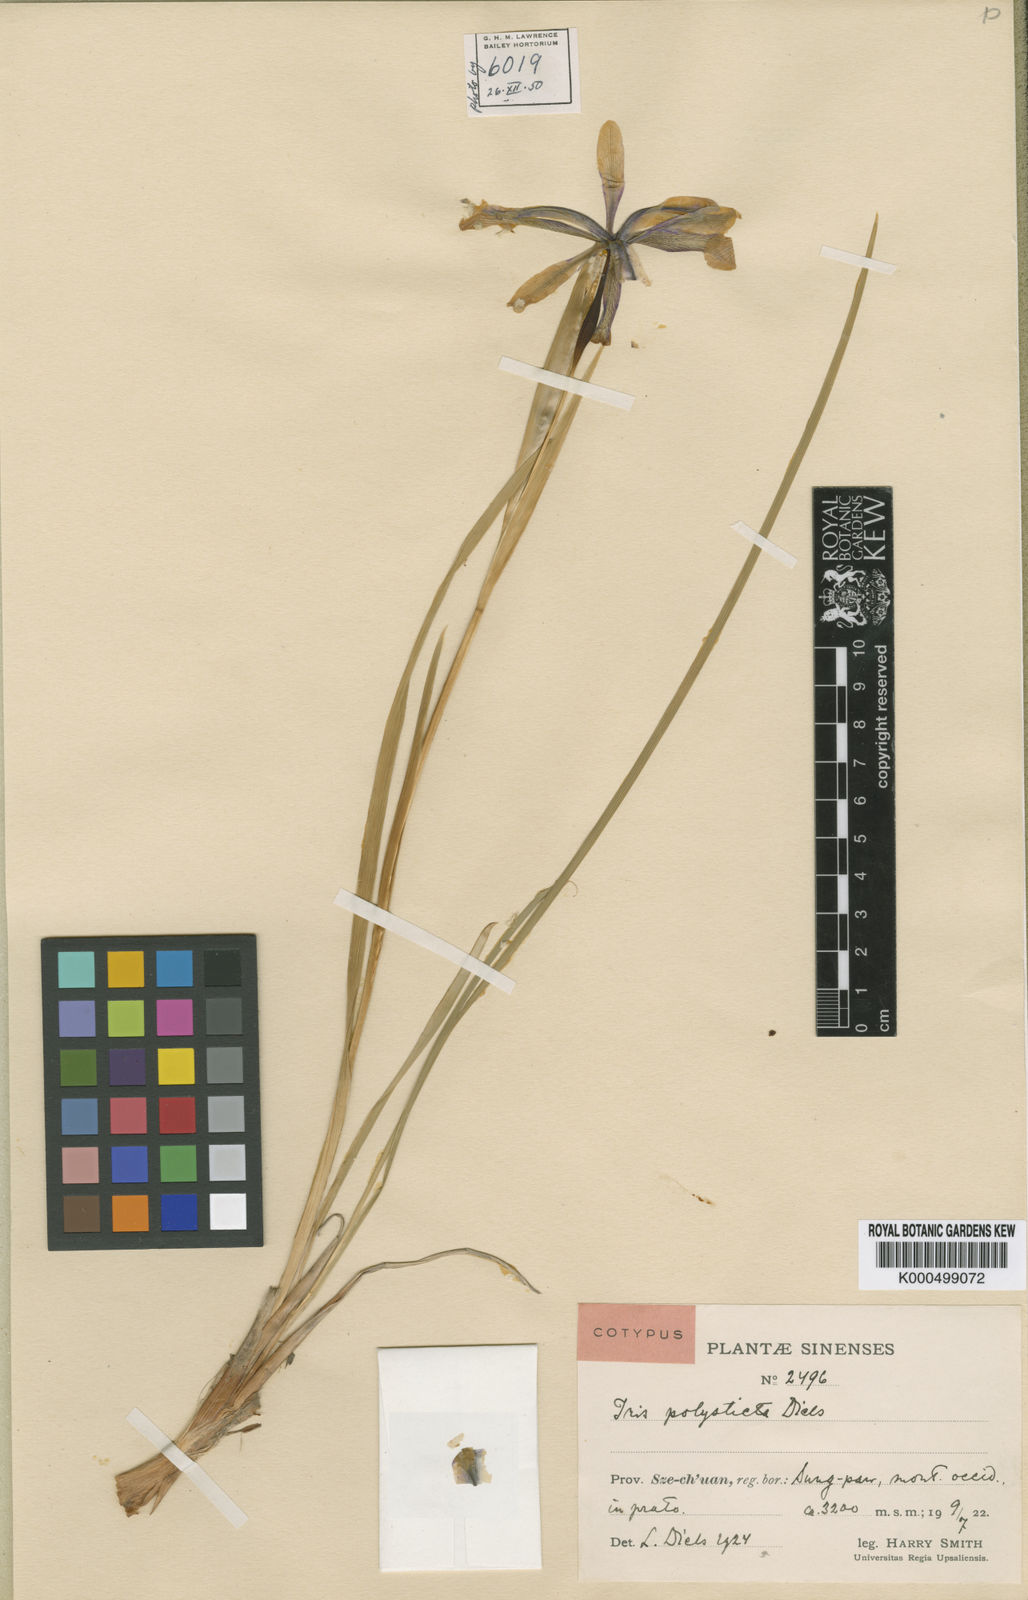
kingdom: Plantae
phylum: Tracheophyta
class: Liliopsida
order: Asparagales
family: Iridaceae
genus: Iris
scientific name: Iris farreri
